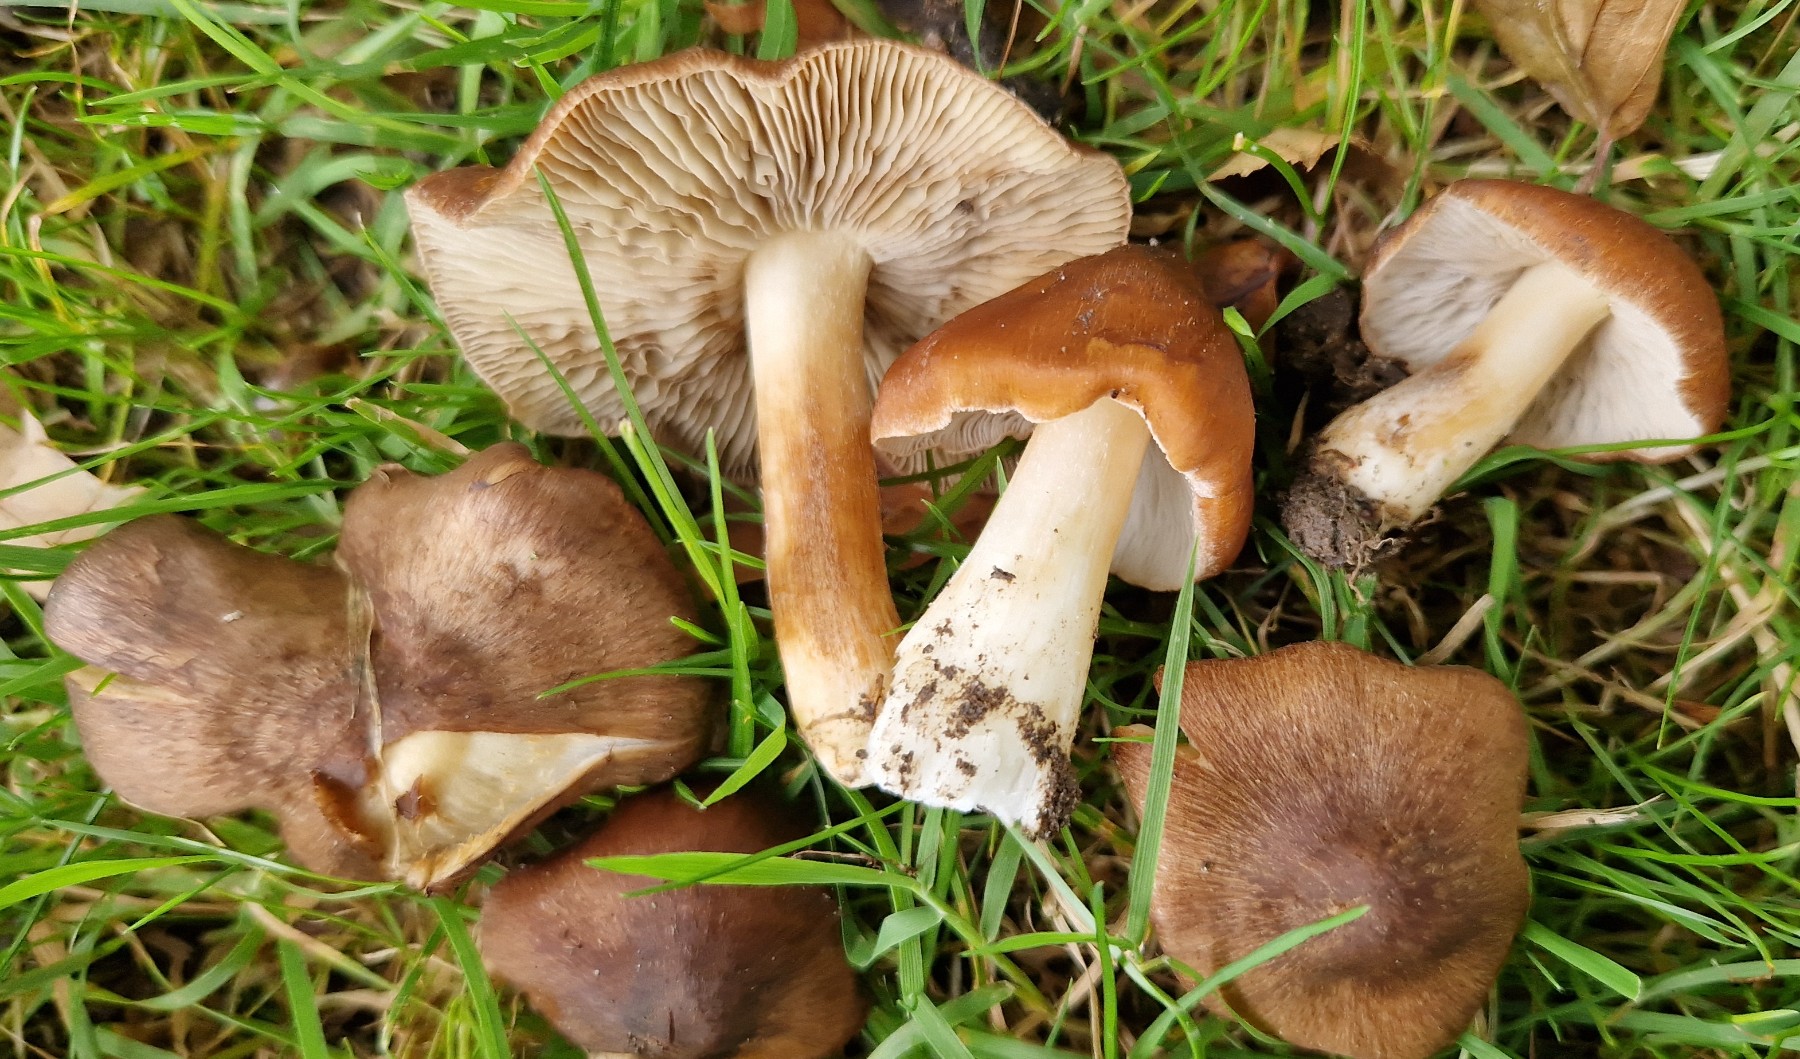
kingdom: Fungi
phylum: Basidiomycota
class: Agaricomycetes
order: Agaricales
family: Inocybaceae
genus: Inosperma
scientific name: Inosperma fulvum
